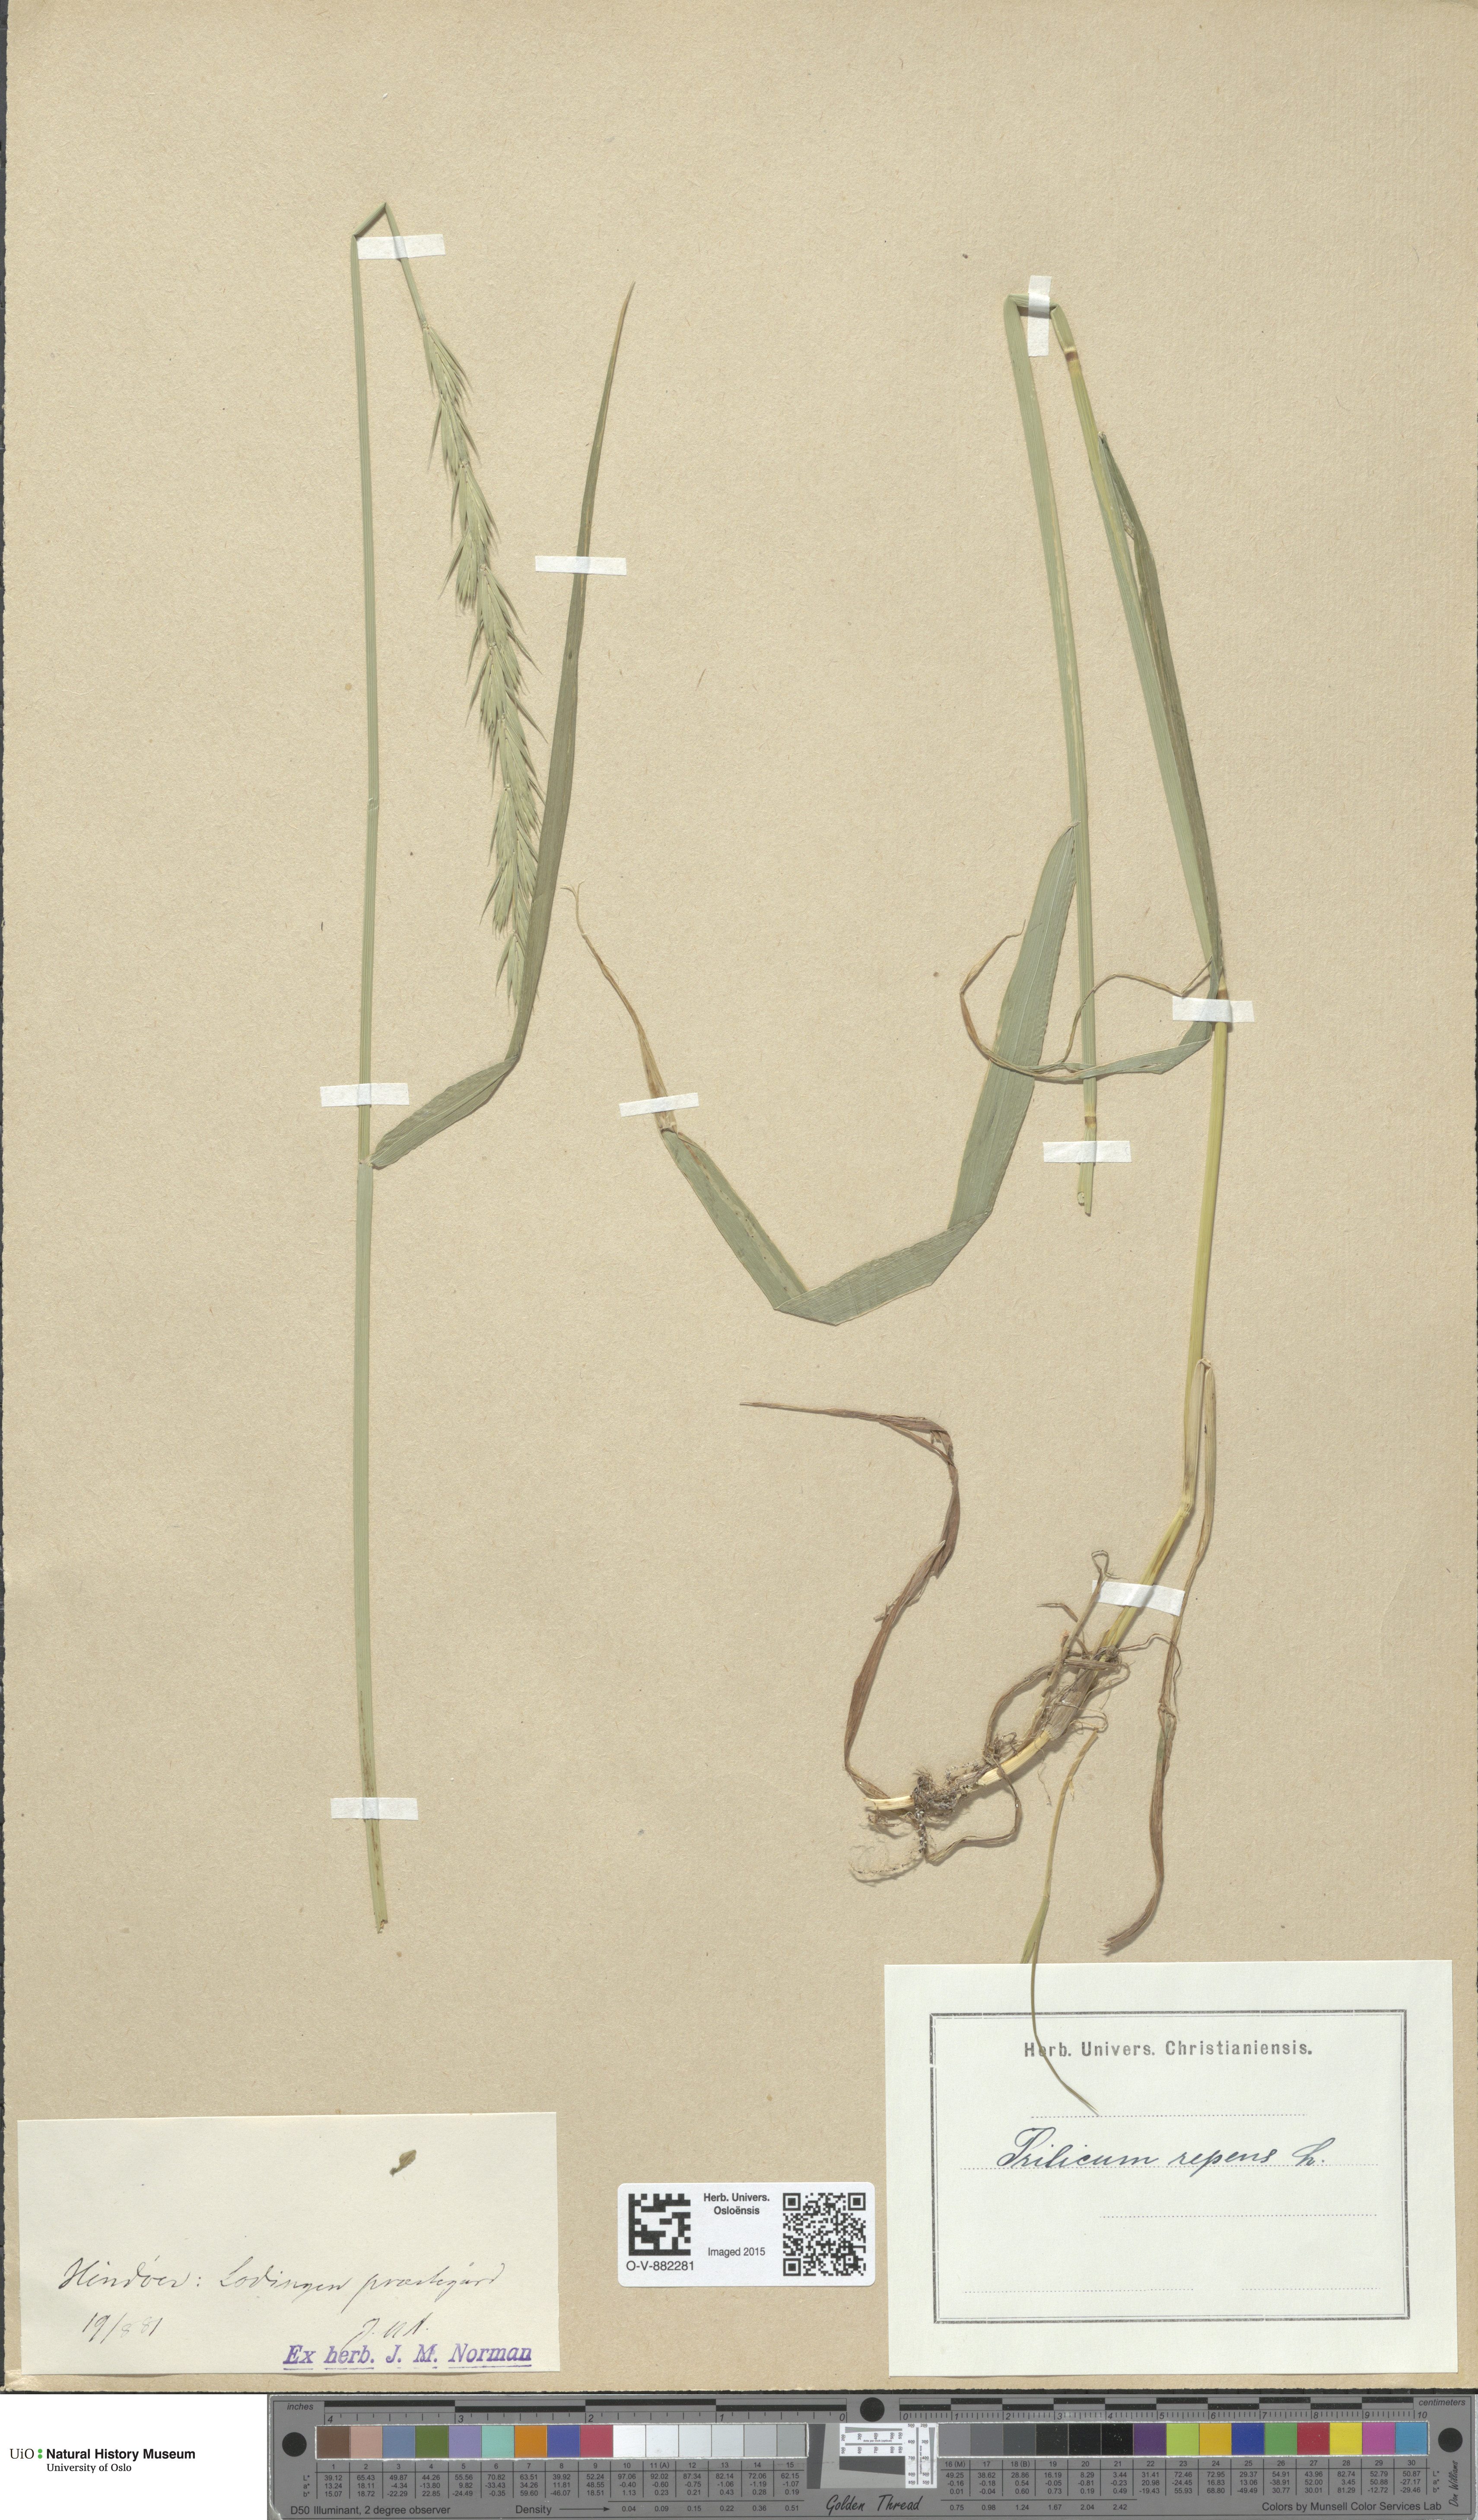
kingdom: Plantae
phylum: Tracheophyta
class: Liliopsida
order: Poales
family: Poaceae
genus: Elymus
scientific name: Elymus repens
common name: Quackgrass
